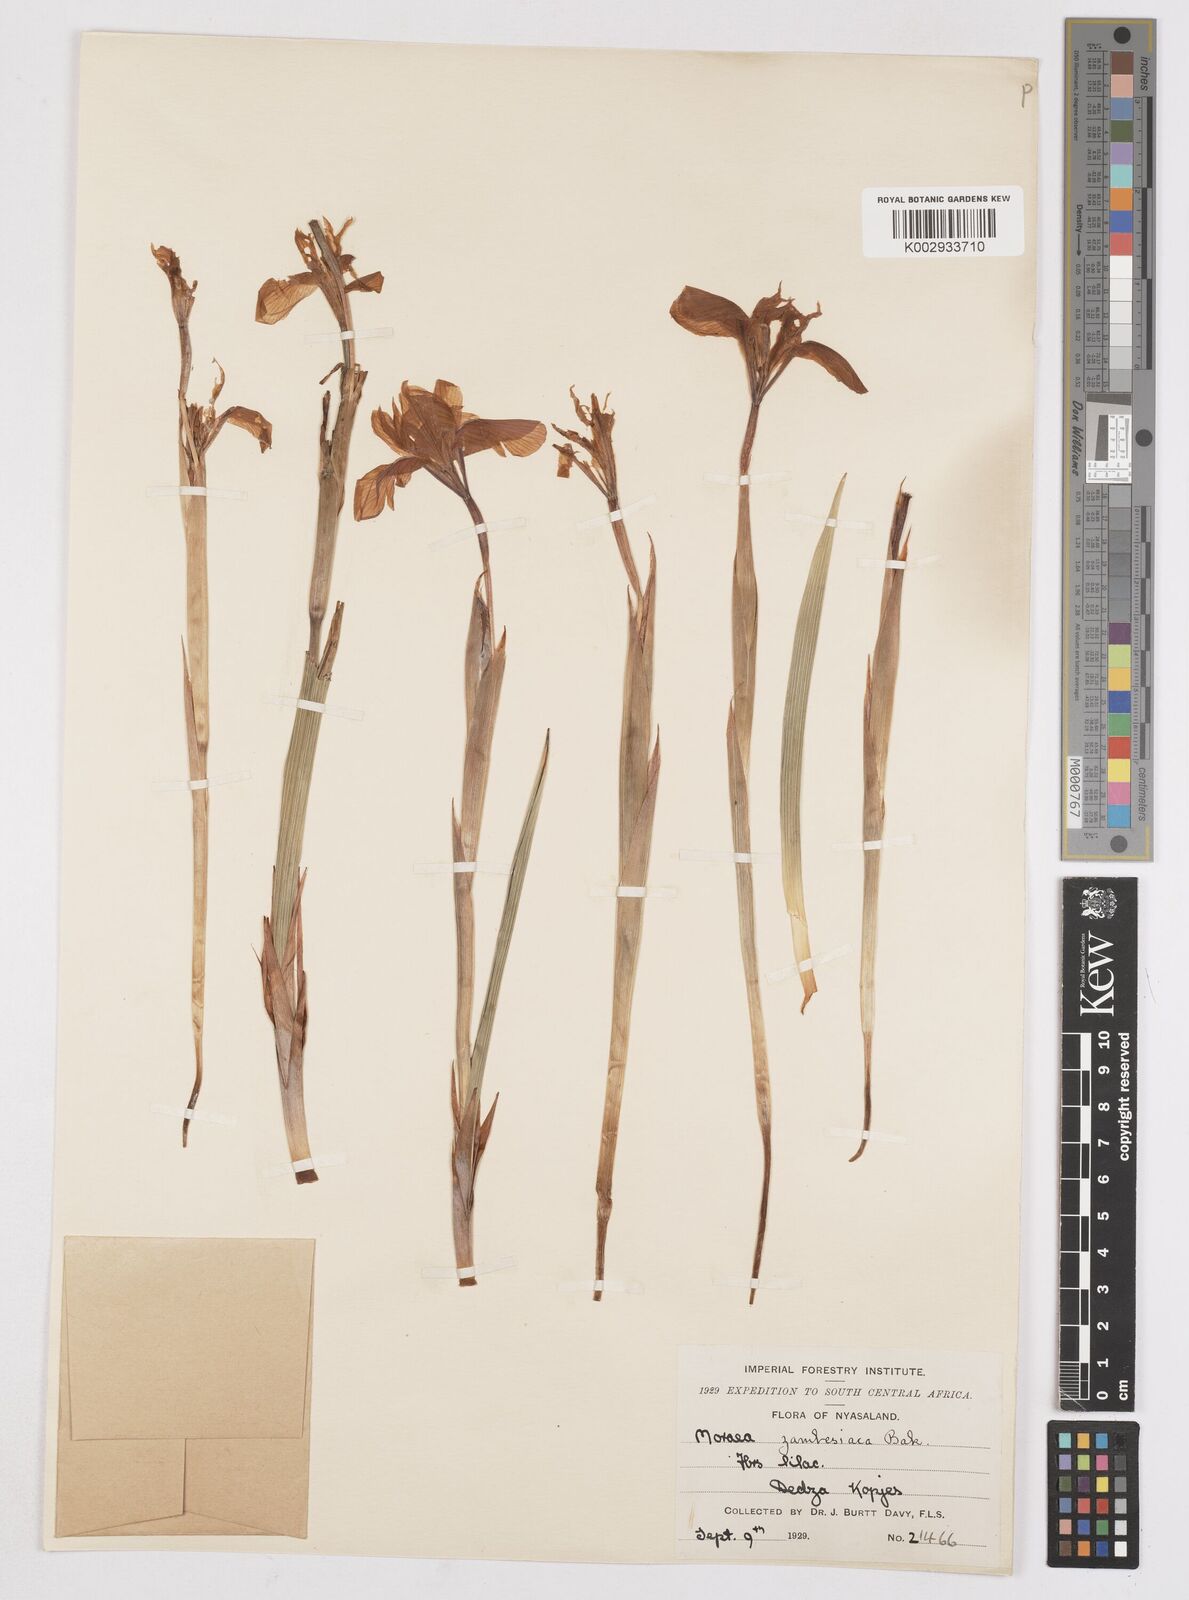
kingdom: Plantae
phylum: Tracheophyta
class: Liliopsida
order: Asparagales
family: Iridaceae
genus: Moraea
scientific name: Moraea schimperi
